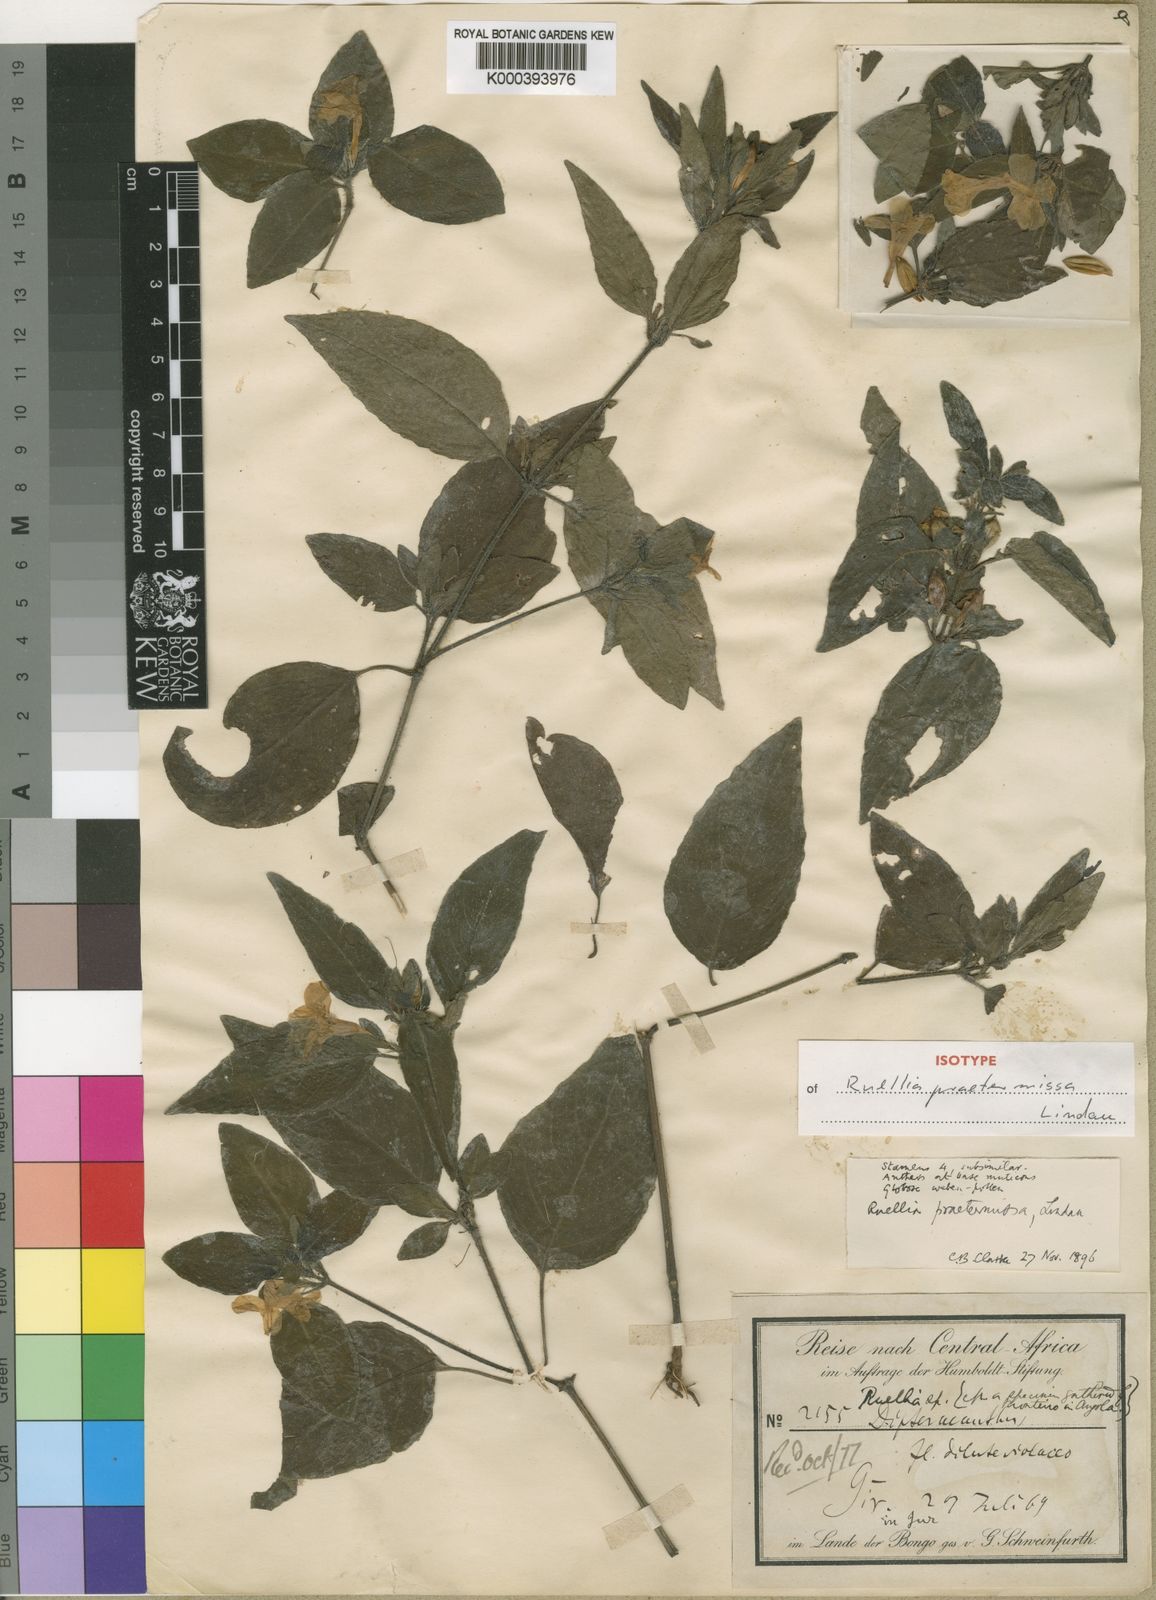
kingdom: Plantae
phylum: Tracheophyta
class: Magnoliopsida
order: Lamiales
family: Acanthaceae
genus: Ruellia
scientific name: Ruellia praetermissa
